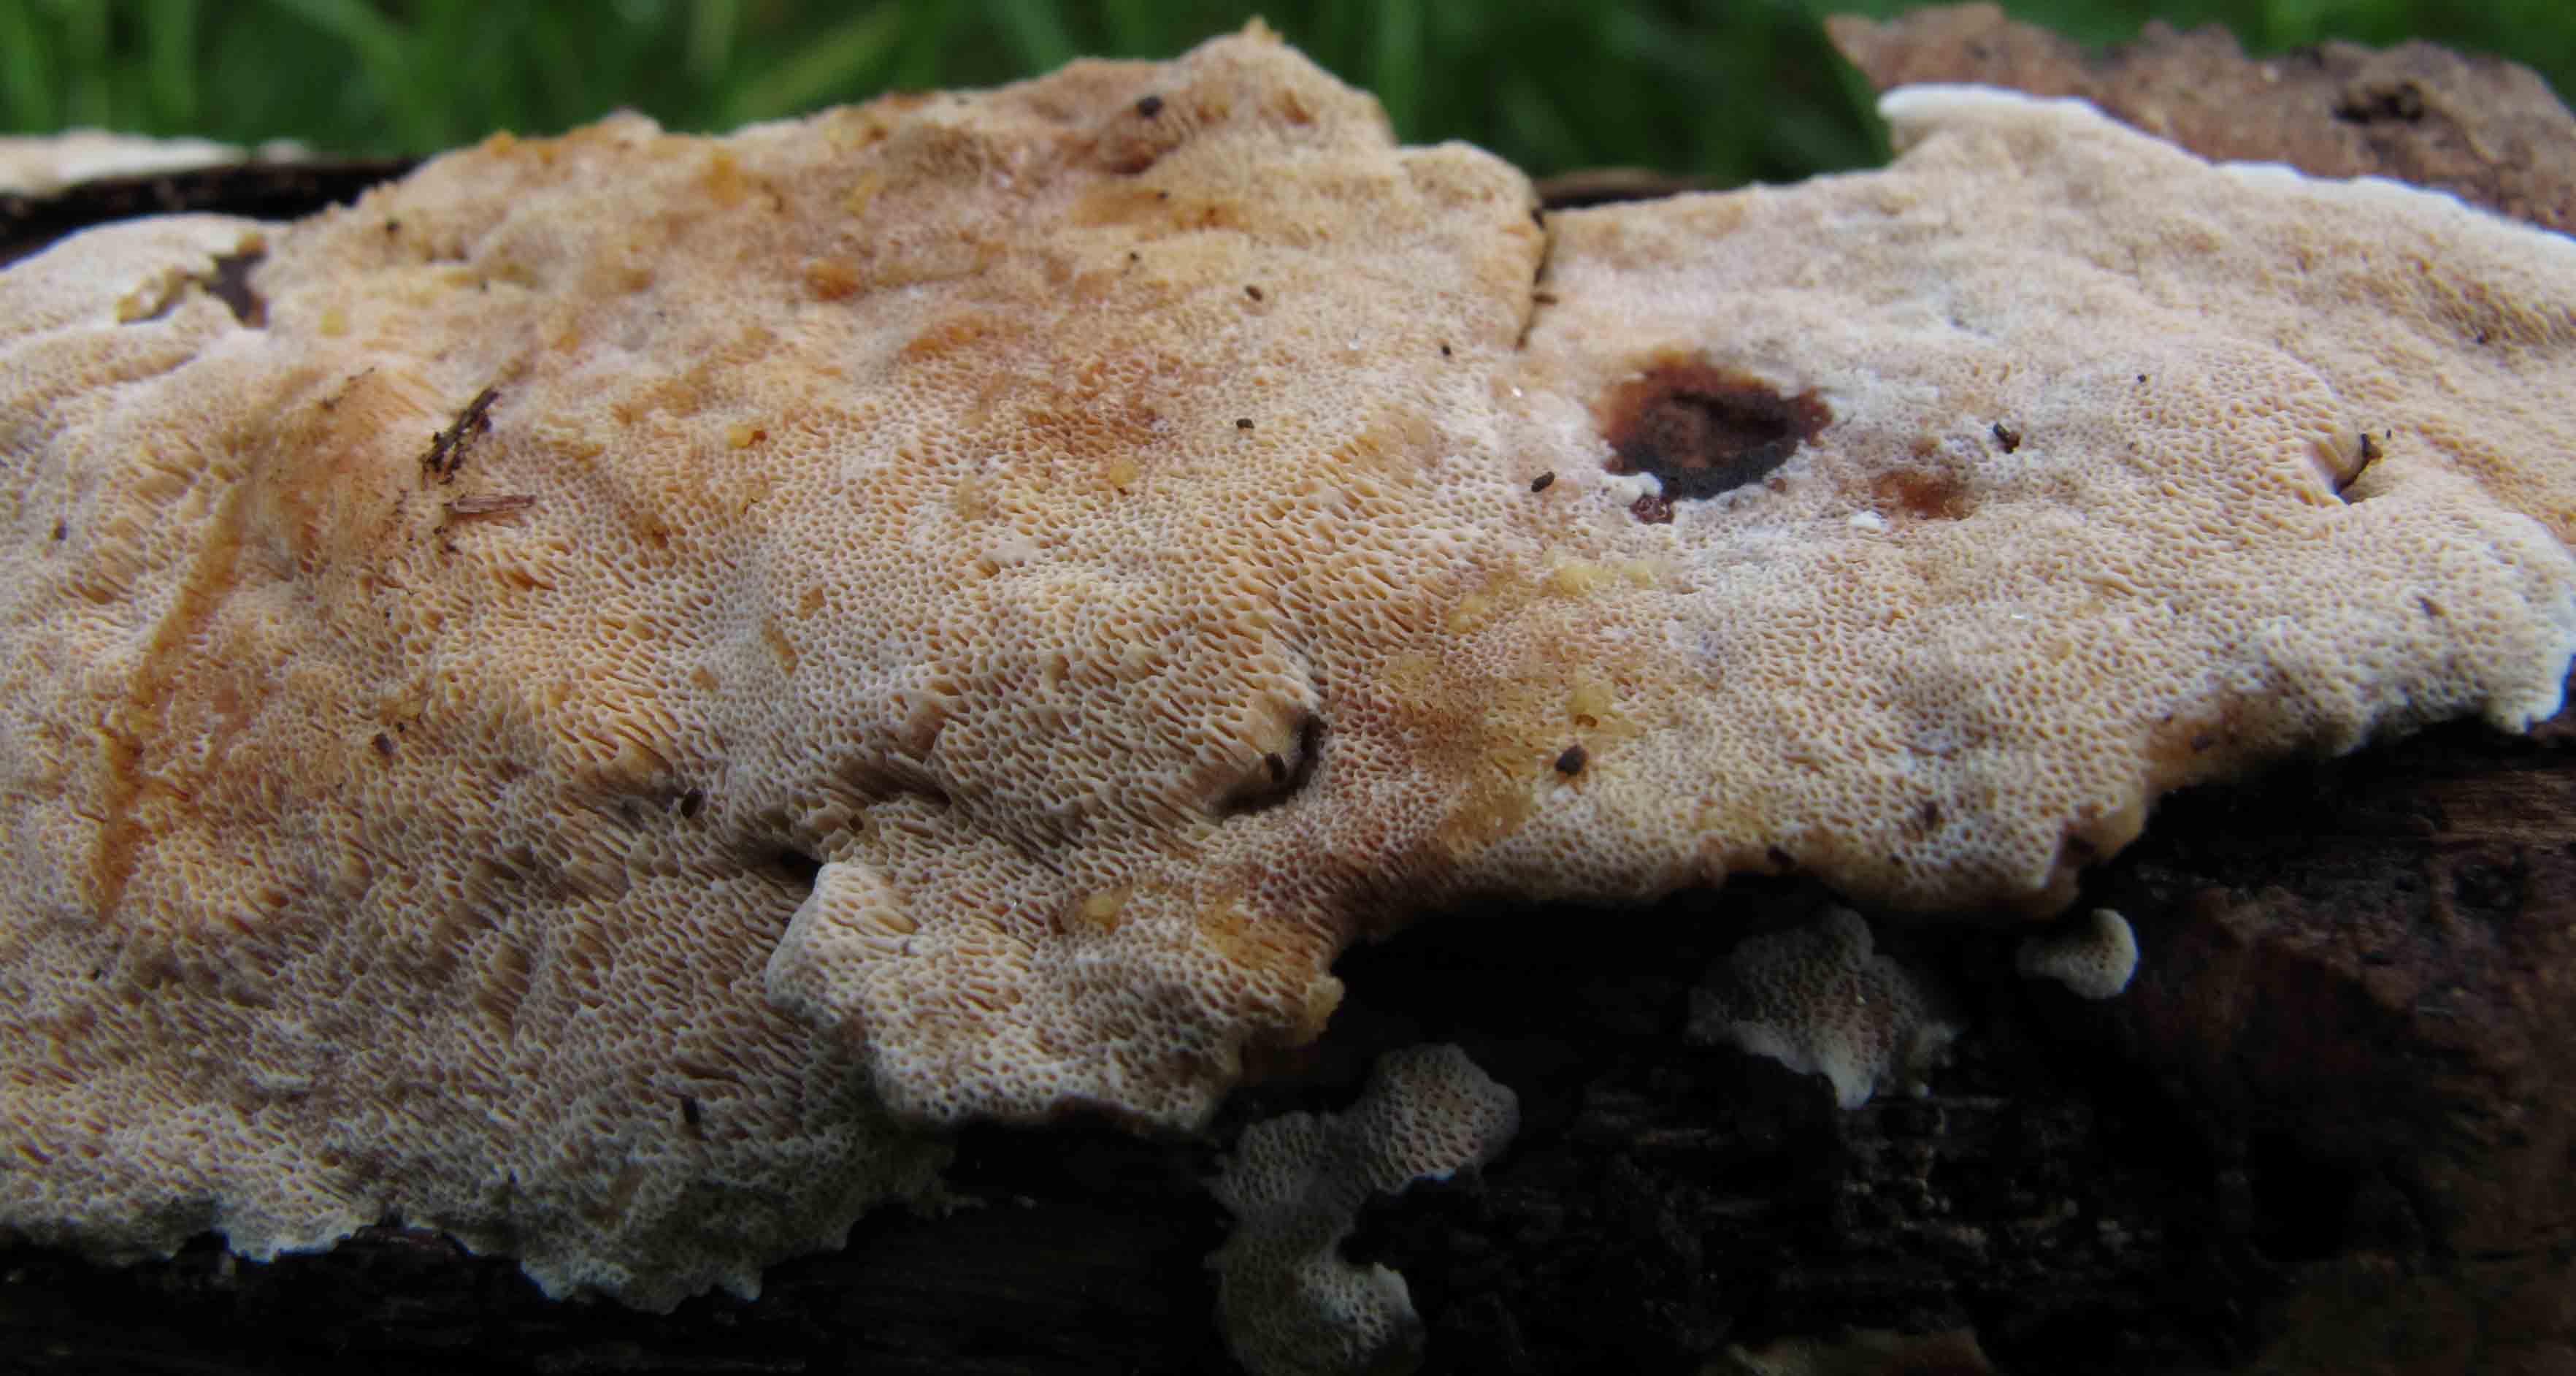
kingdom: Fungi
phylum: Basidiomycota
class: Agaricomycetes
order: Polyporales
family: Steccherinaceae
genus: Junghuhnia
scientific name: Junghuhnia nitida
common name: almindelig skønporesvamp
